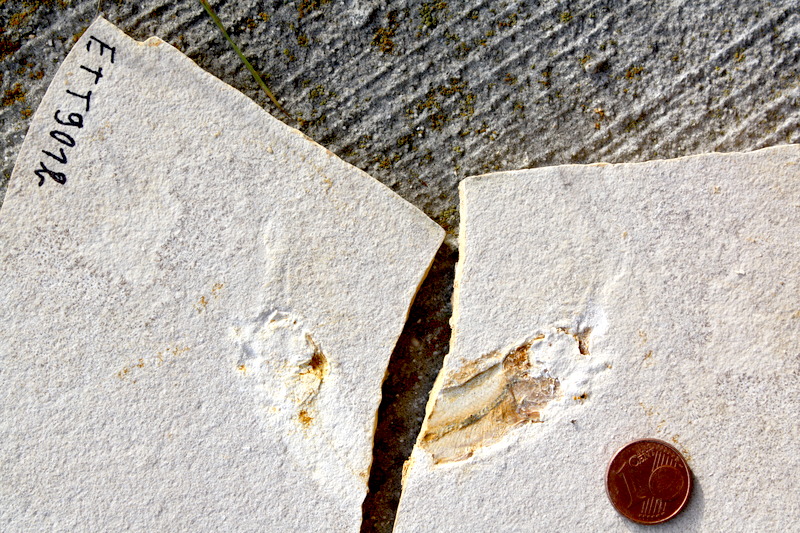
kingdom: Animalia
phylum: Chordata
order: Salmoniformes
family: Orthogonikleithridae
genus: Orthogonikleithrus
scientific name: Orthogonikleithrus hoelli
